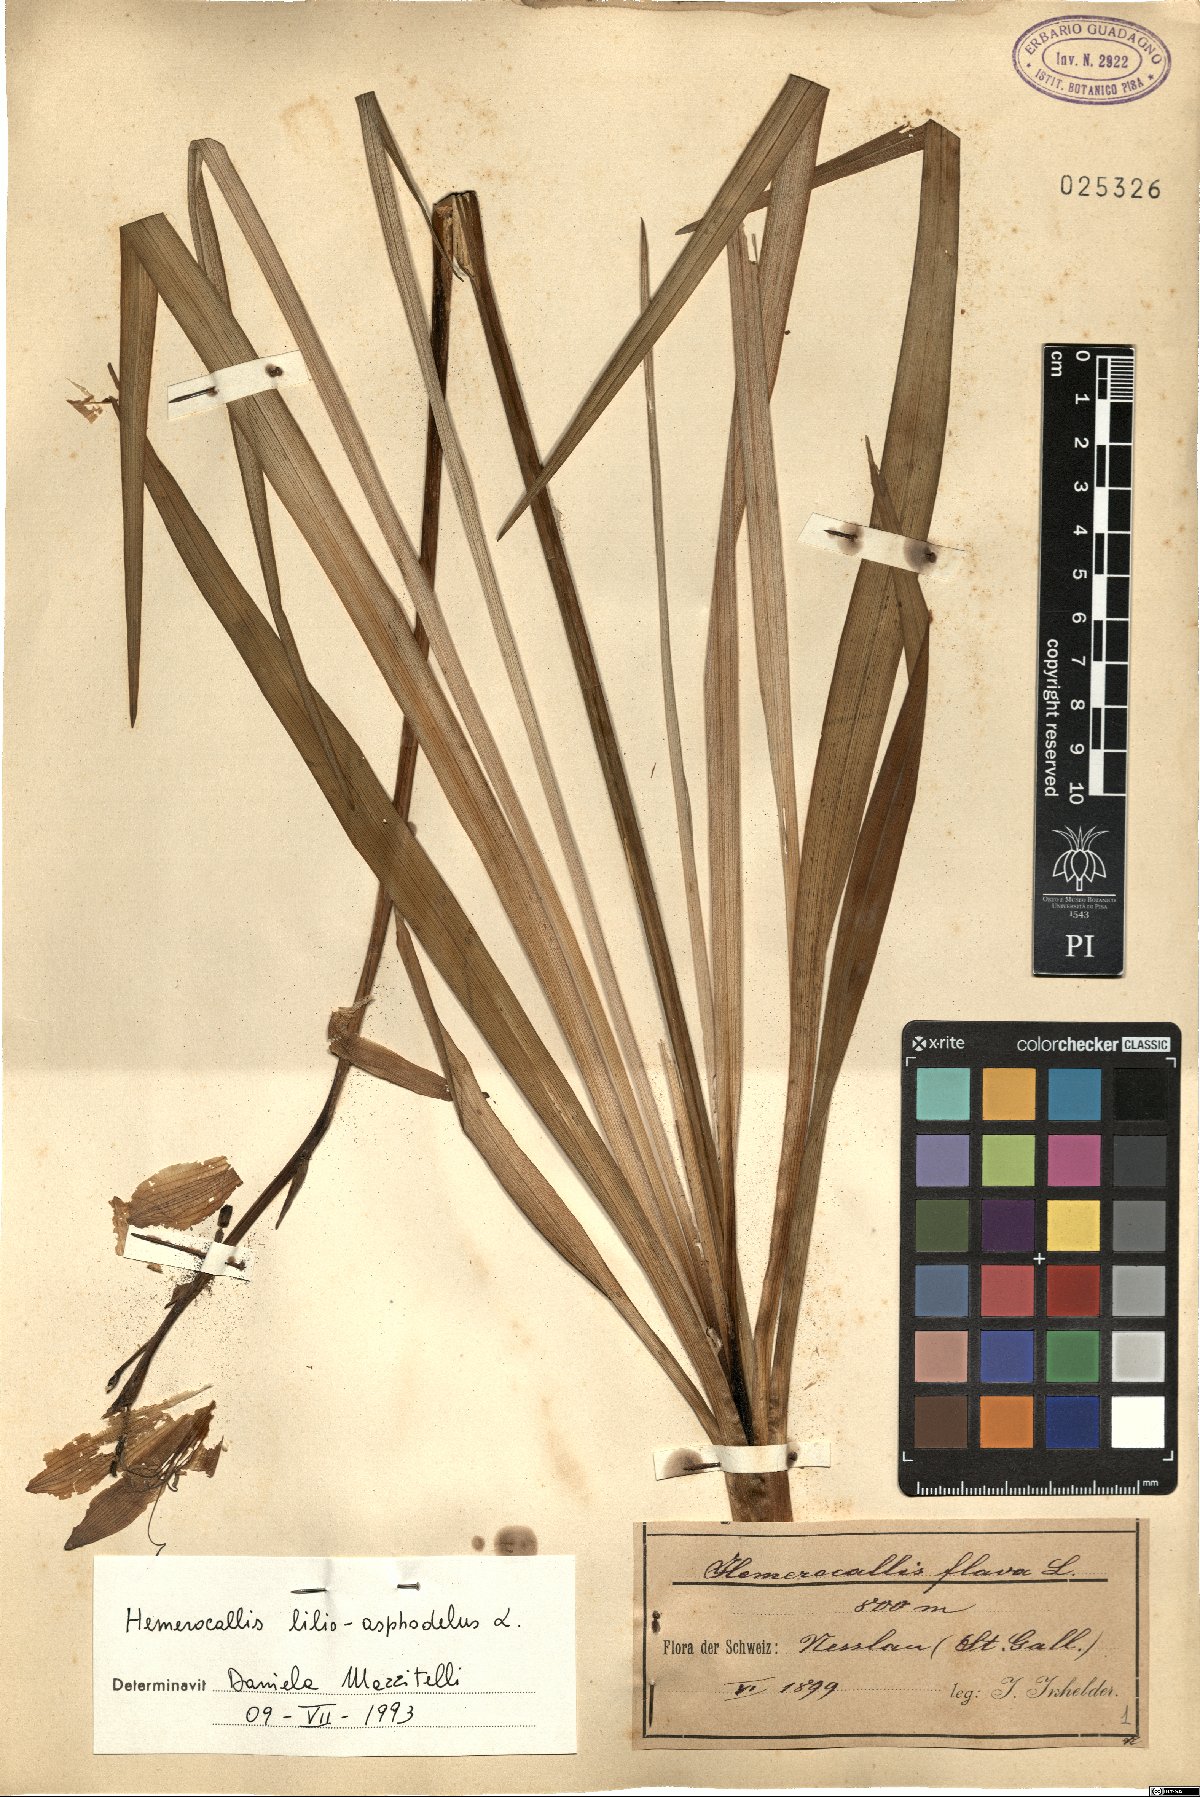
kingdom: Plantae
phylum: Tracheophyta
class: Liliopsida
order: Asparagales
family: Asphodelaceae
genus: Hemerocallis
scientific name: Hemerocallis lilioasphodelus
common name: Yellow day-lily
